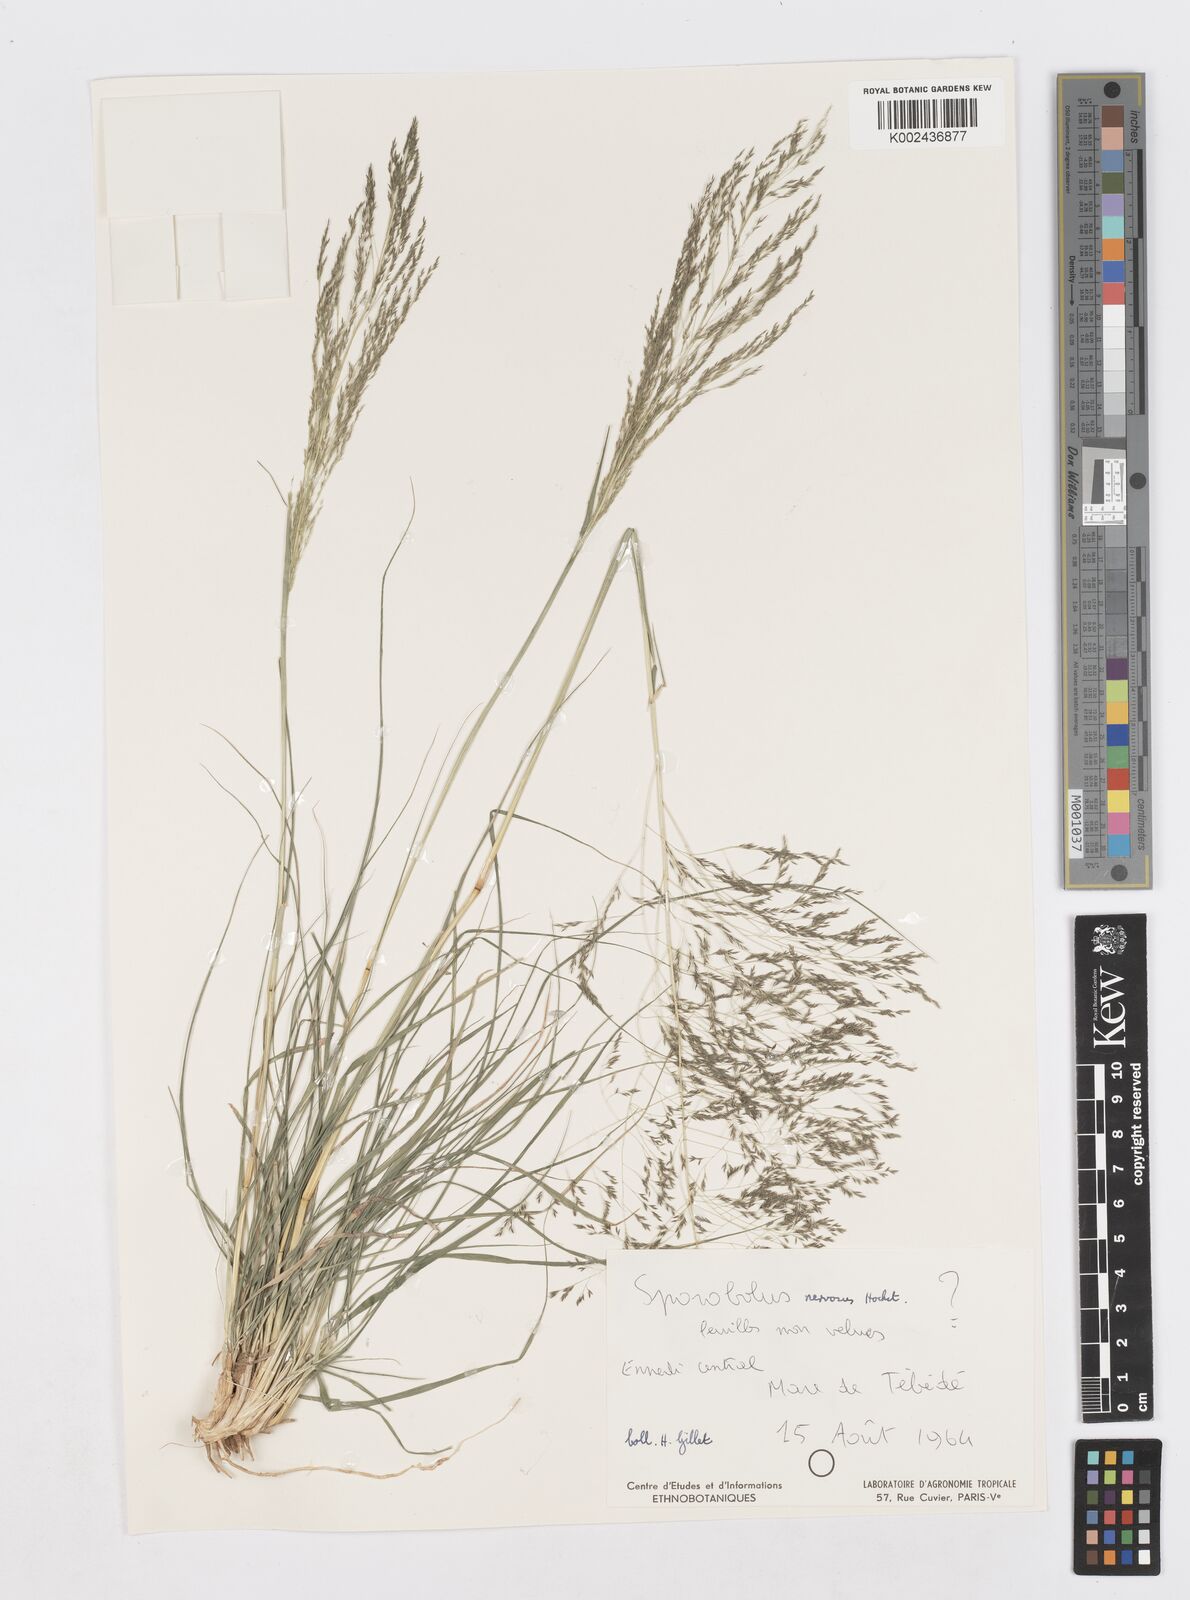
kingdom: Plantae
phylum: Tracheophyta
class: Liliopsida
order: Poales
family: Poaceae
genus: Sporobolus
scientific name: Sporobolus nervosus
